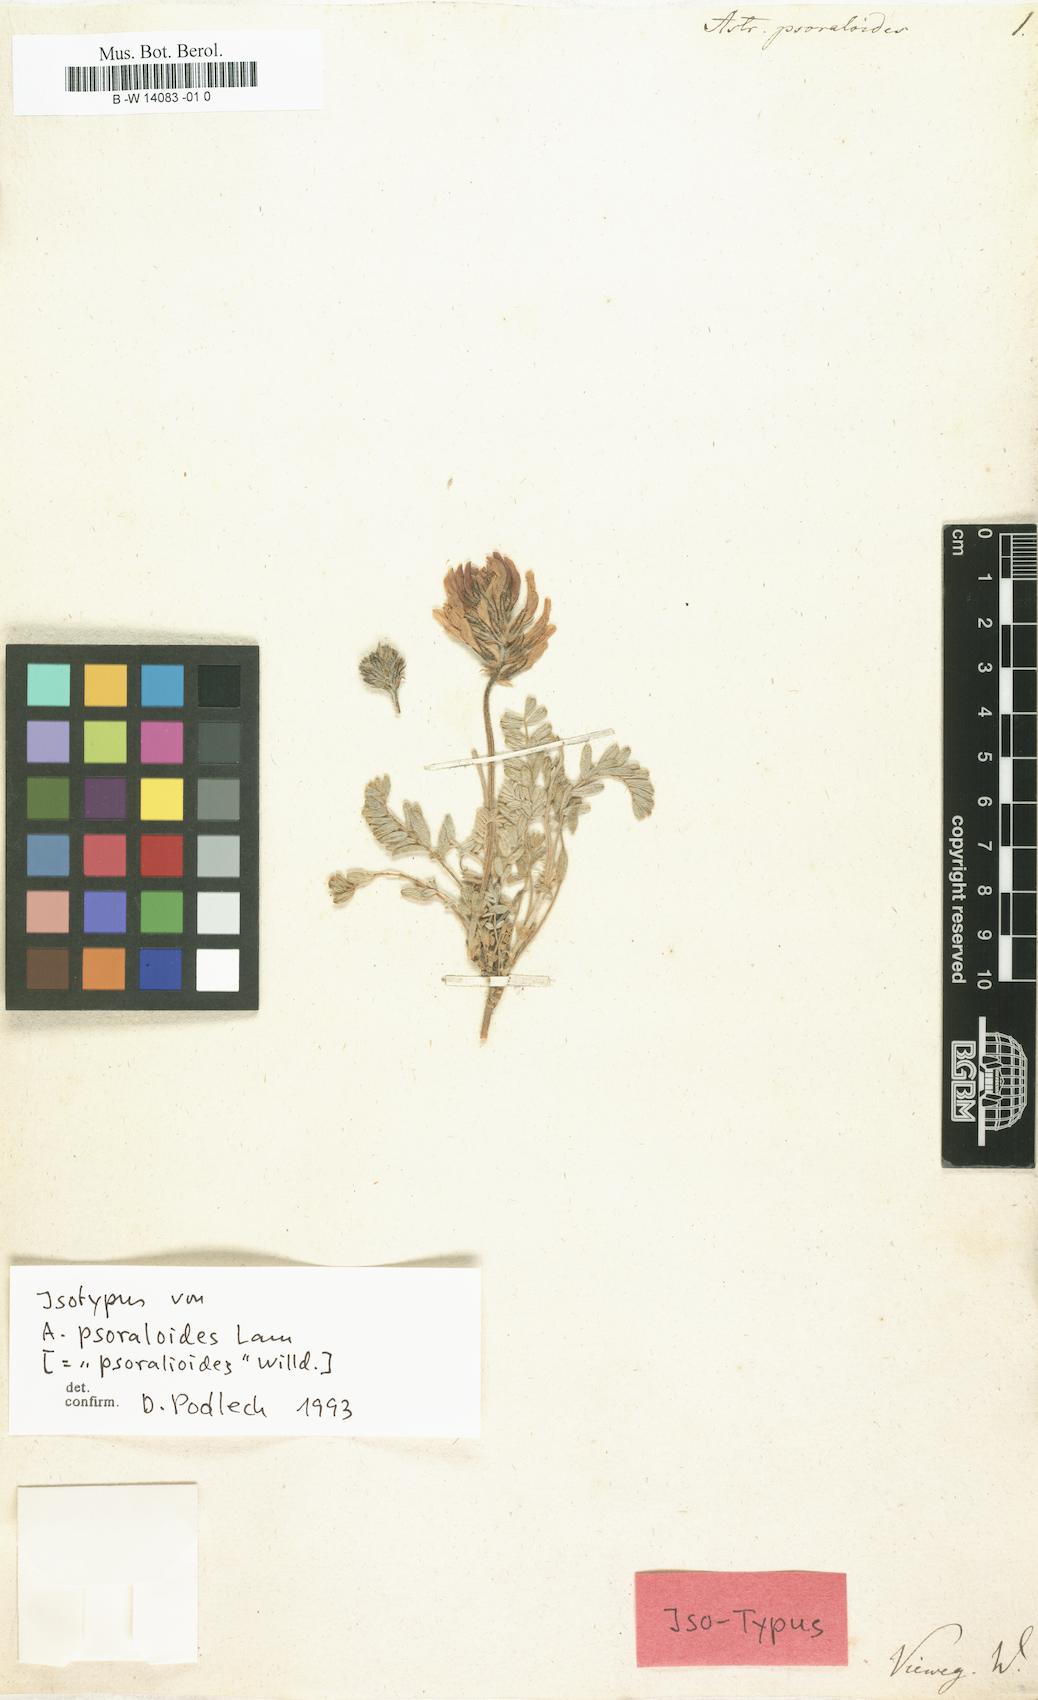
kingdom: Plantae
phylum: Tracheophyta
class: Magnoliopsida
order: Fabales
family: Fabaceae
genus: Astragalus
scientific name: Astragalus psoraloides
